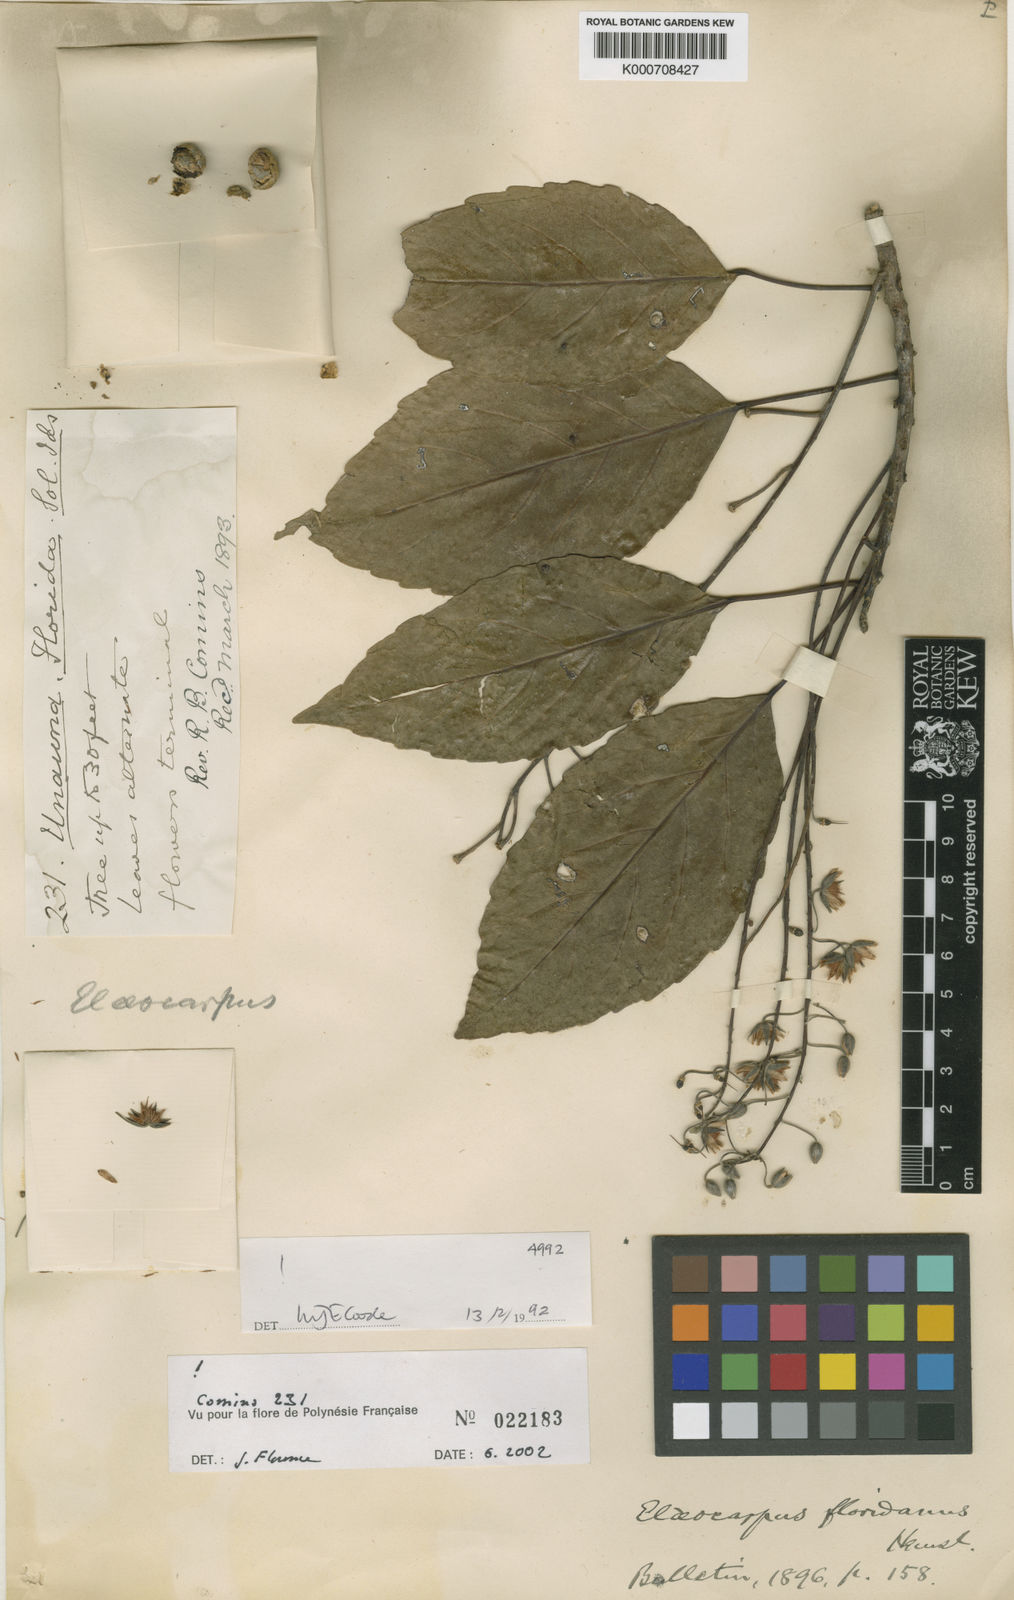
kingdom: Plantae
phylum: Tracheophyta
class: Magnoliopsida
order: Oxalidales
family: Elaeocarpaceae
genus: Elaeocarpus
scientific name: Elaeocarpus floridanus
